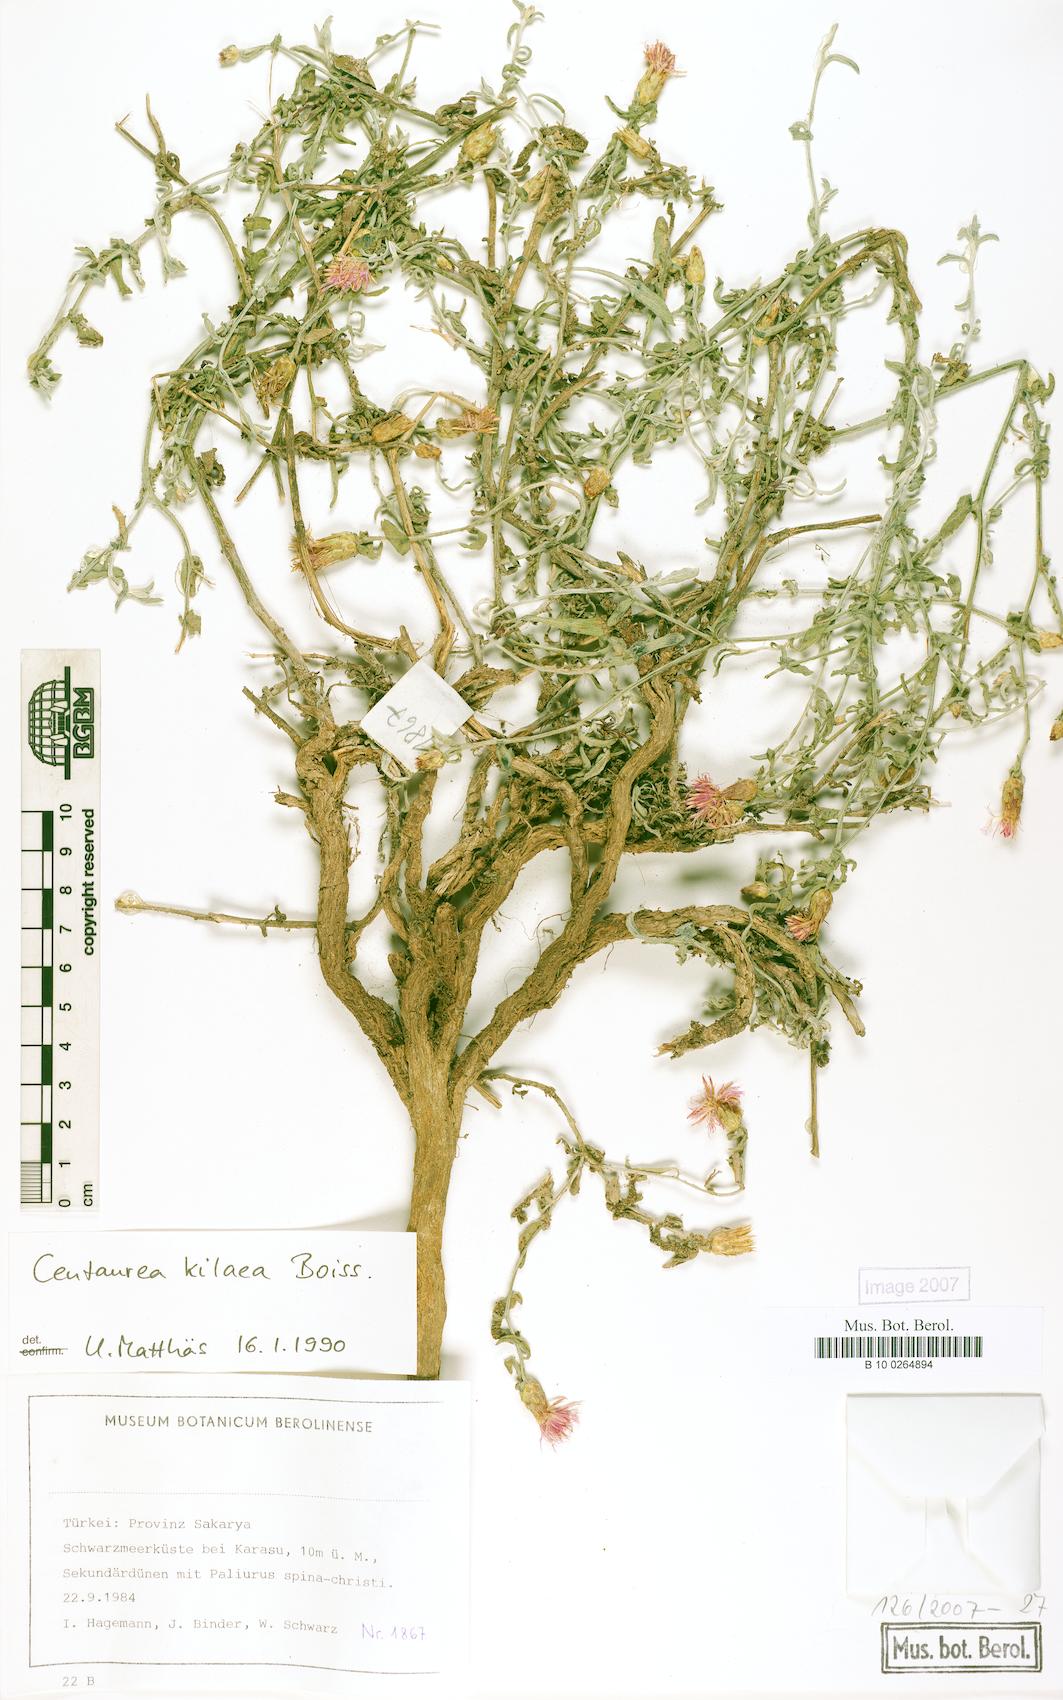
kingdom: Plantae
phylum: Tracheophyta
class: Magnoliopsida
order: Asterales
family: Asteraceae
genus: Centaurea
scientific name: Centaurea kilaea
